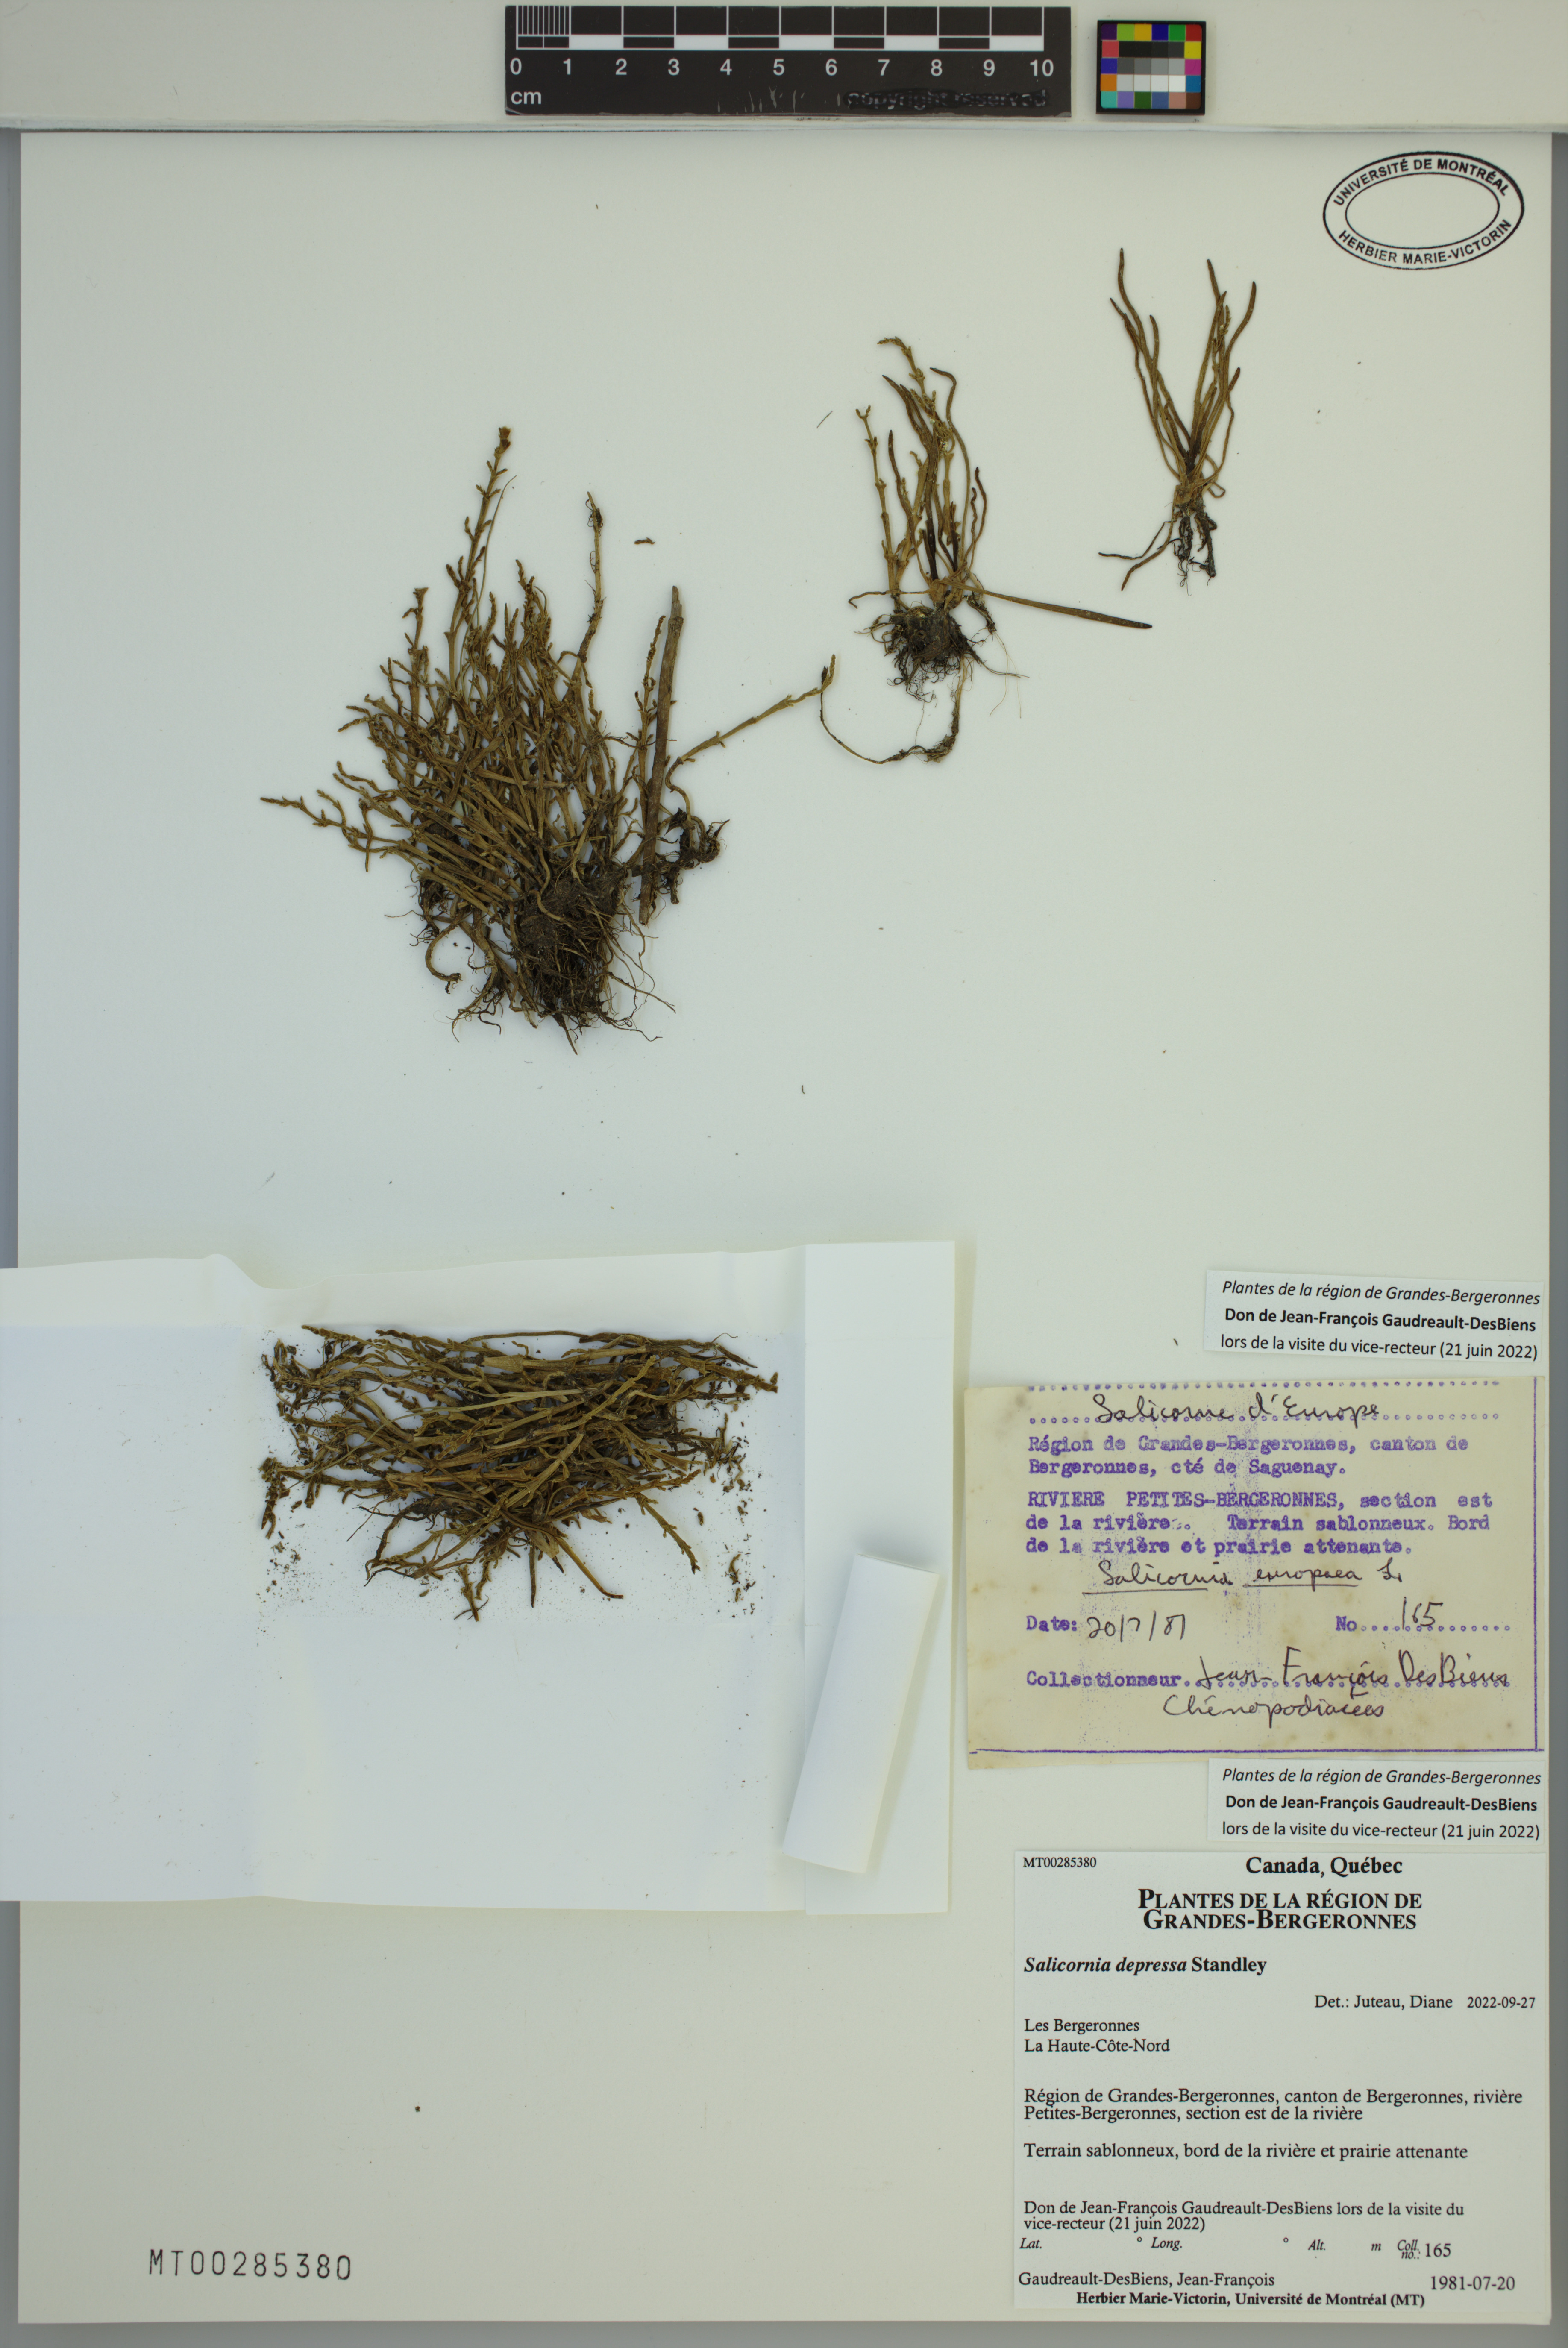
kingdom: Plantae
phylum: Tracheophyta
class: Magnoliopsida
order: Caryophyllales
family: Amaranthaceae
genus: Salicornia
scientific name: Salicornia virginica
